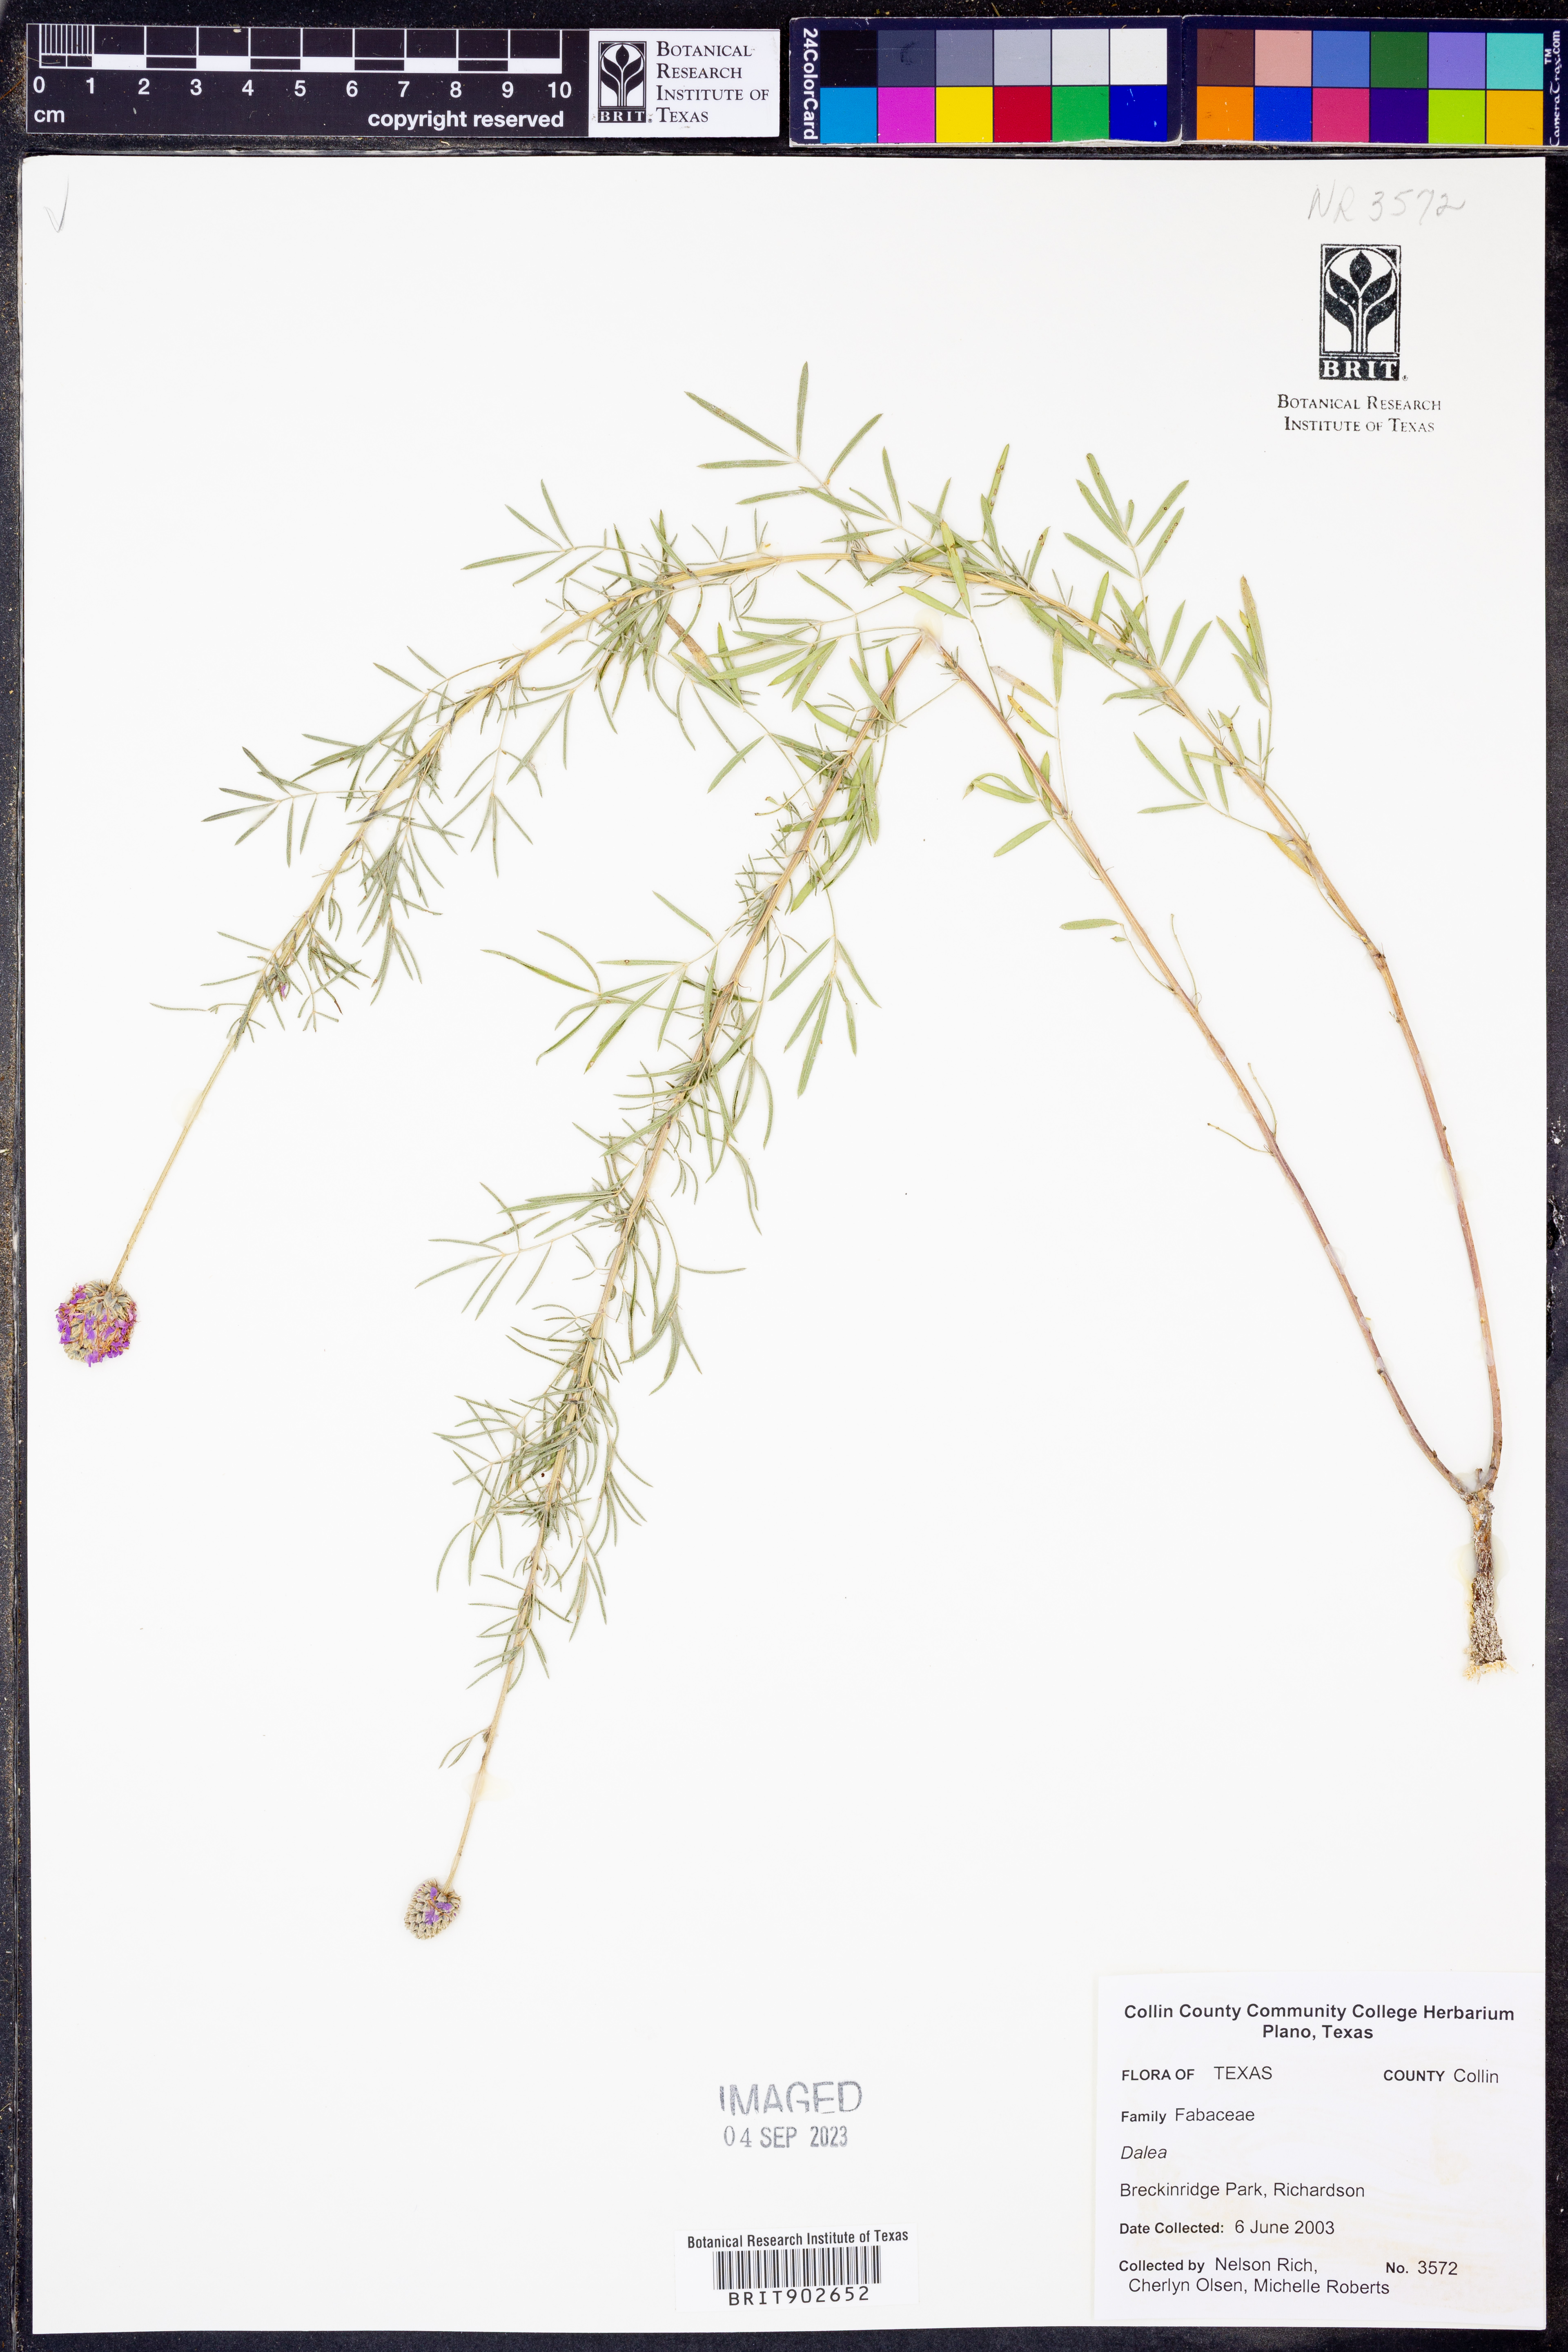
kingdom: Plantae
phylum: Tracheophyta
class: Magnoliopsida
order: Fabales
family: Fabaceae
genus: Dalea
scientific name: Dalea
